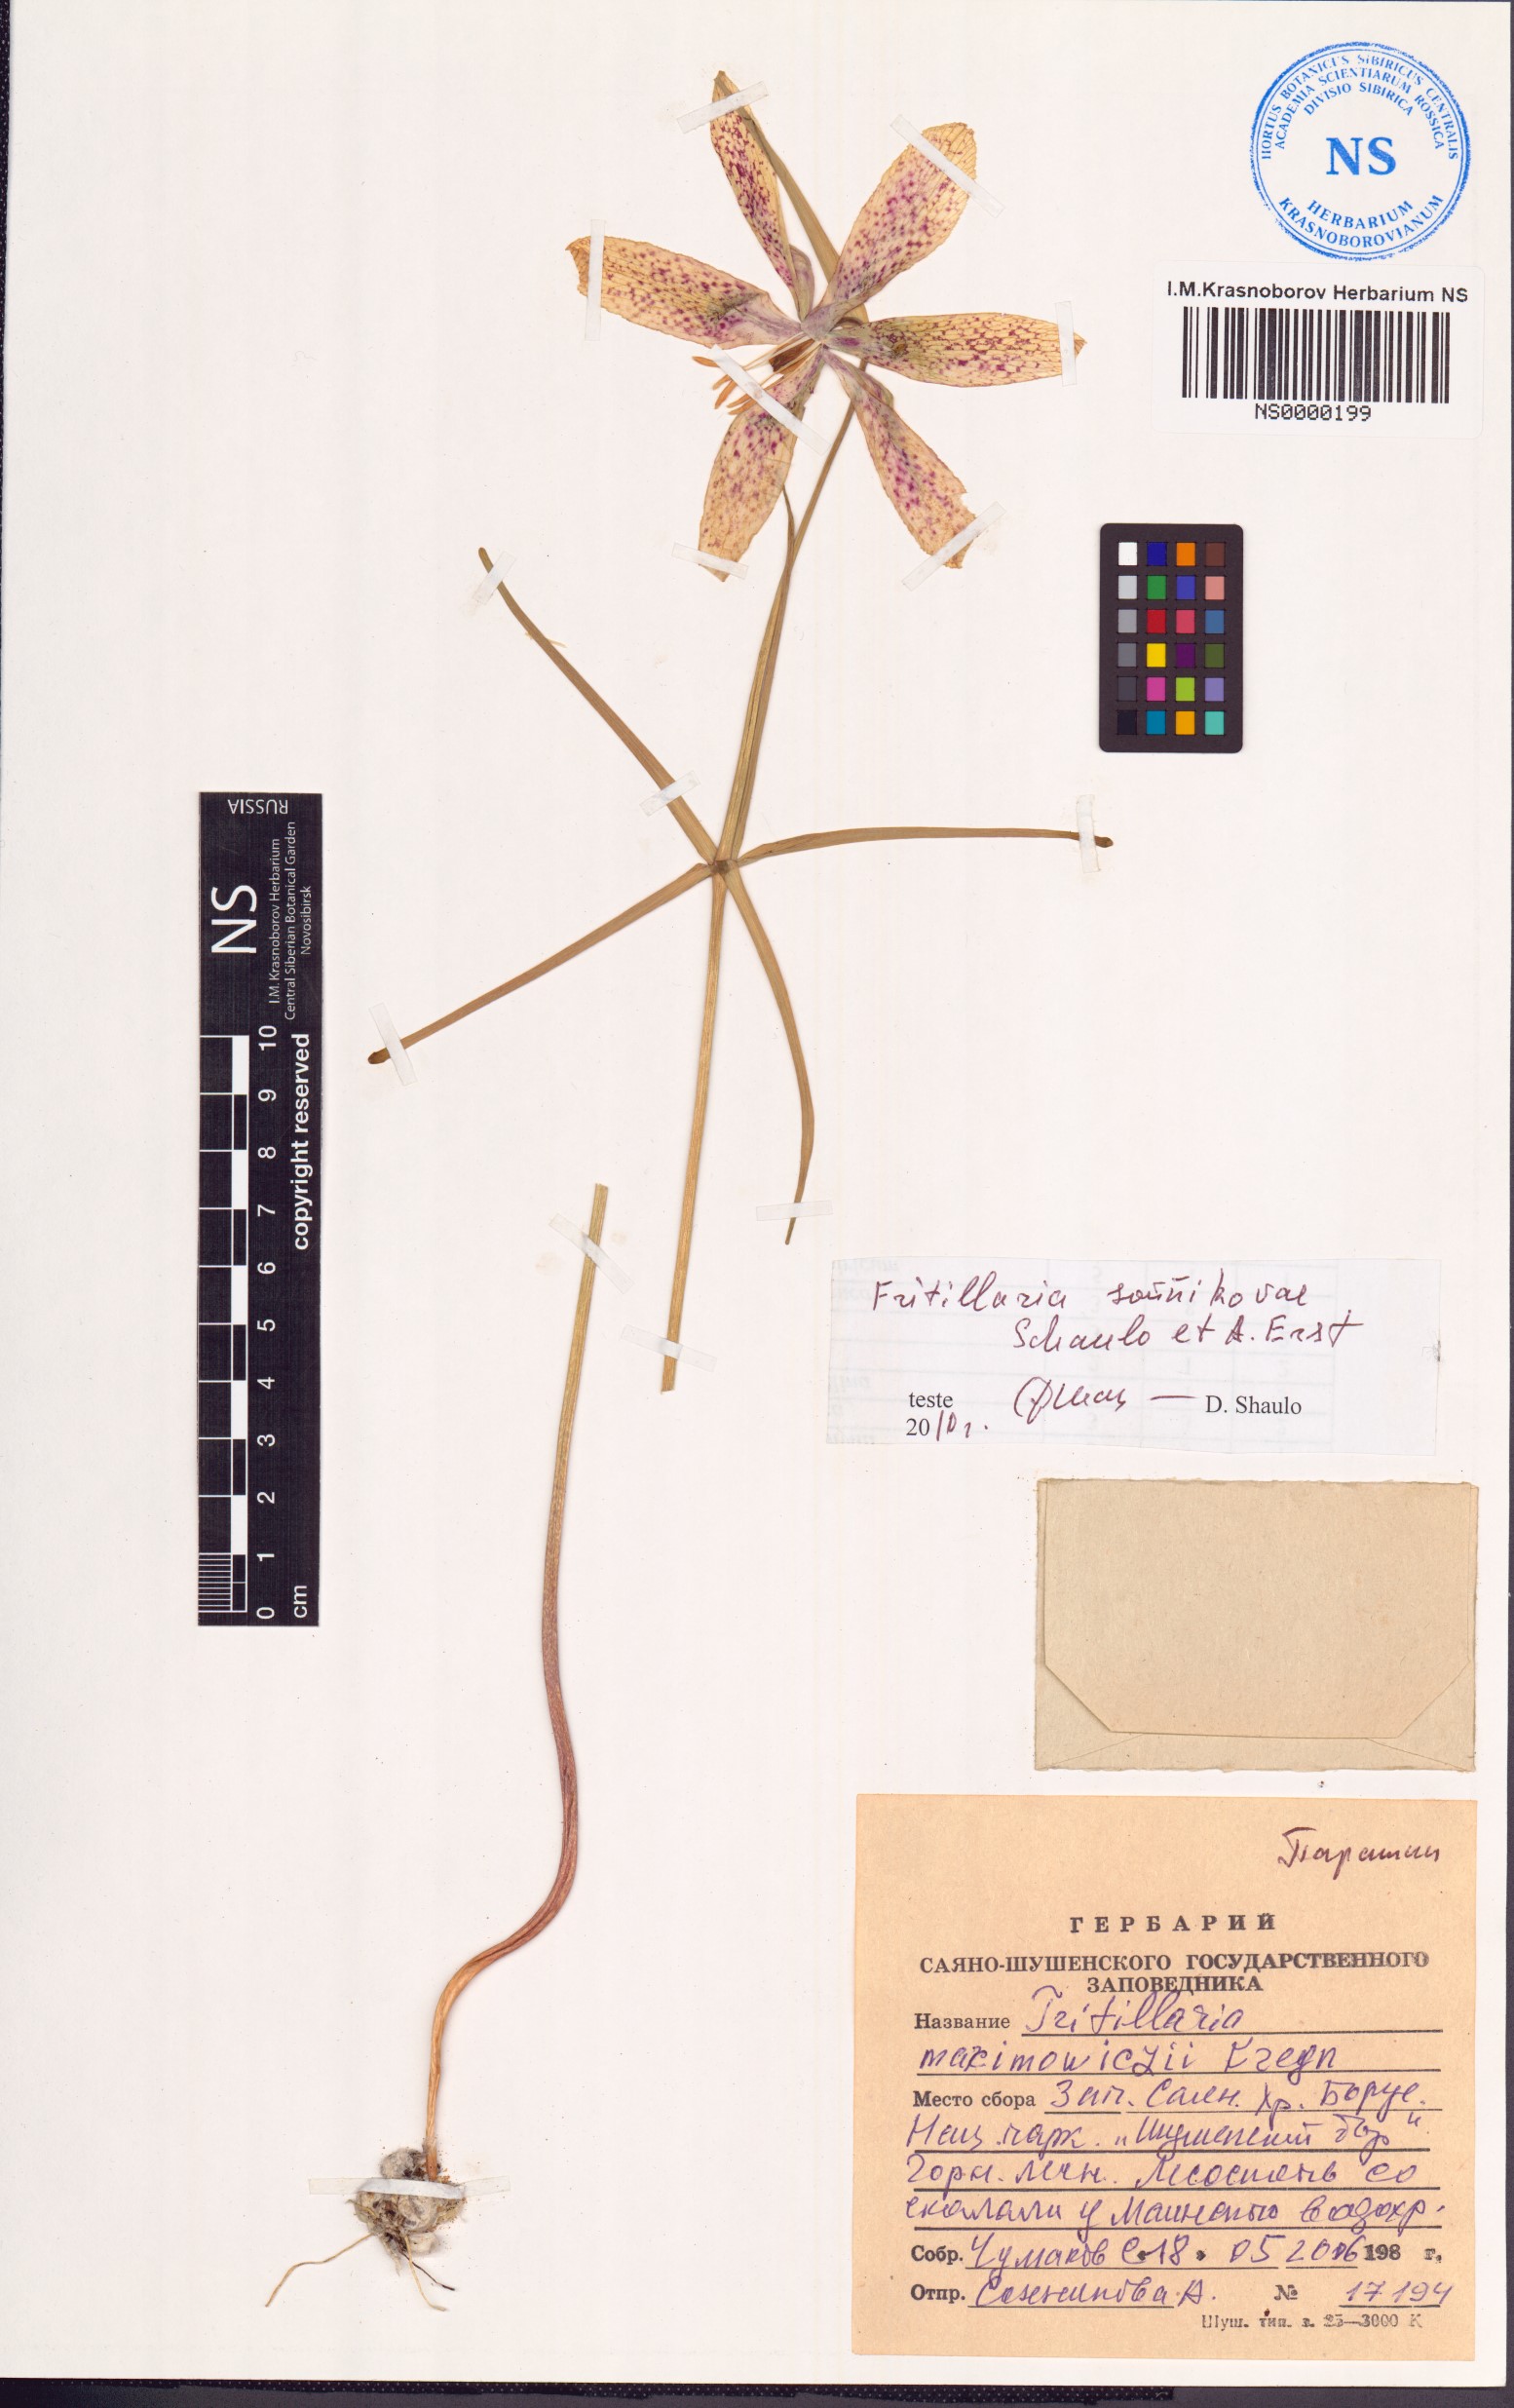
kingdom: Plantae
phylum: Tracheophyta
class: Liliopsida
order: Liliales
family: Liliaceae
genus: Fritillaria
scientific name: Fritillaria sonnikovae
